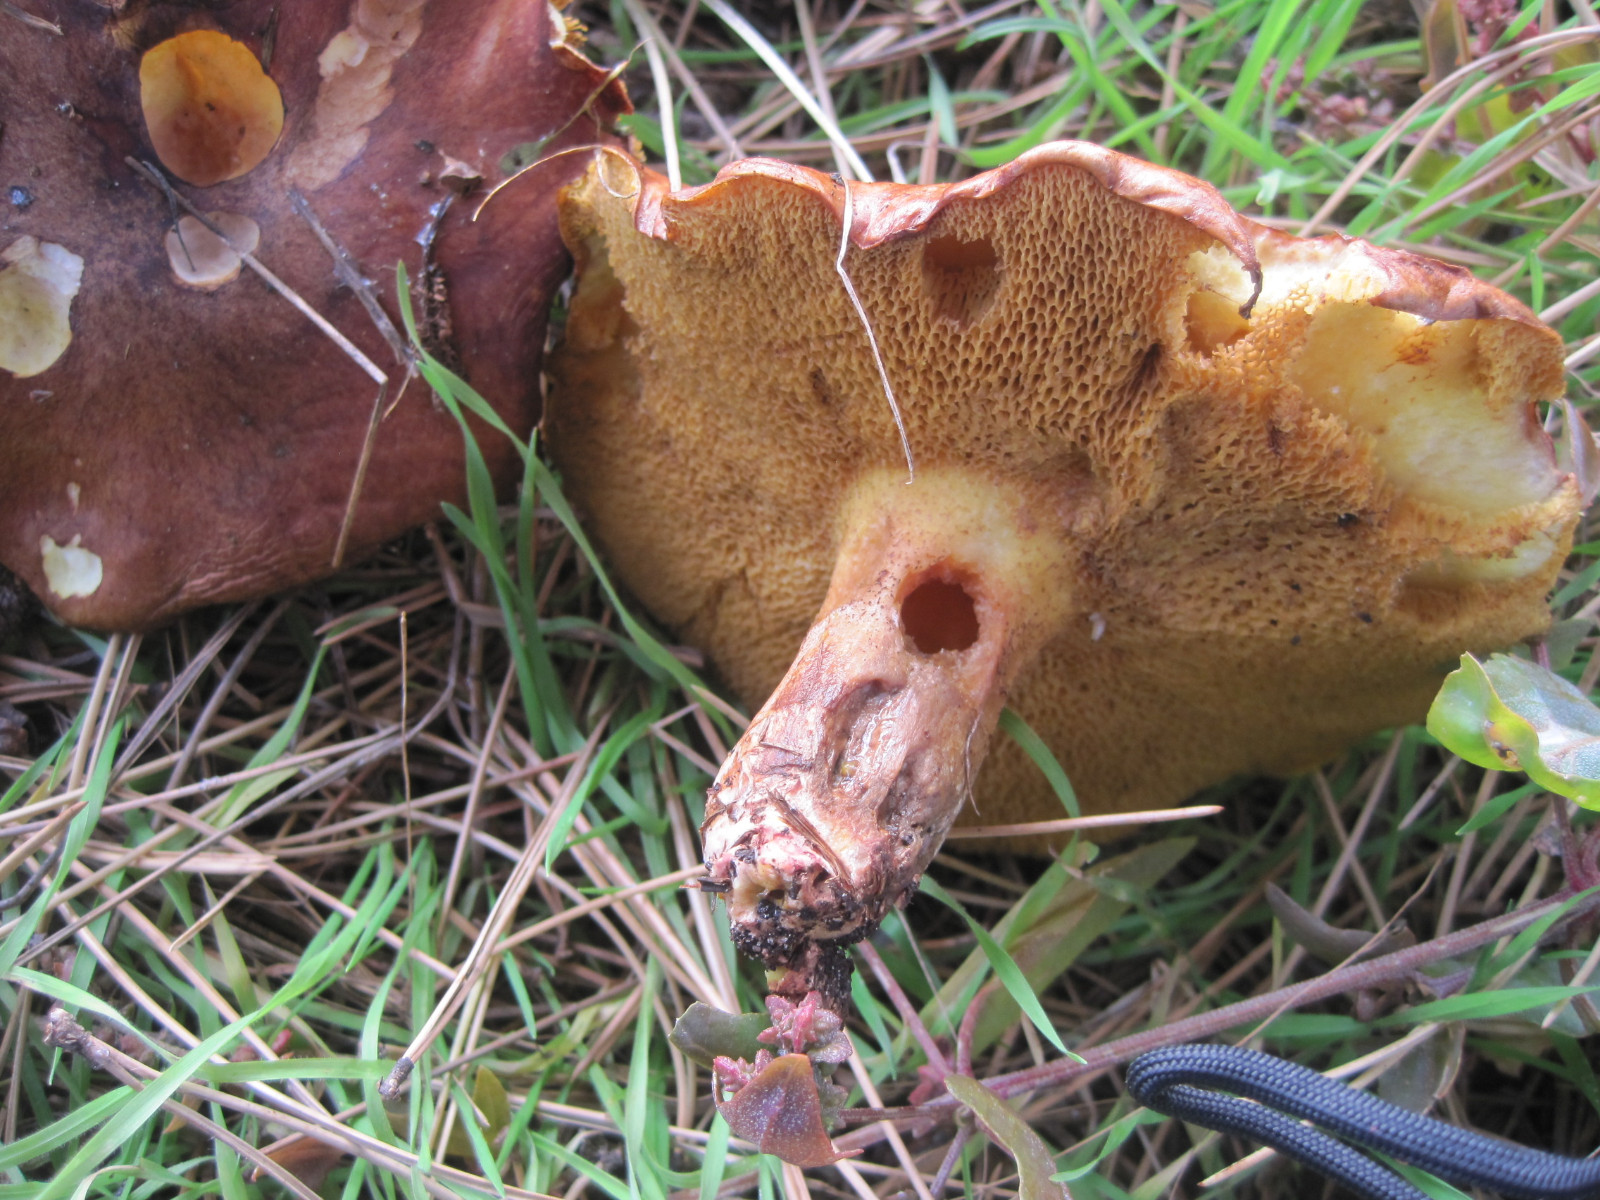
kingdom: Fungi
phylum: Basidiomycota
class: Agaricomycetes
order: Boletales
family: Suillaceae
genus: Suillus
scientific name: Suillus collinitus
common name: rosafodet slimrørhat
